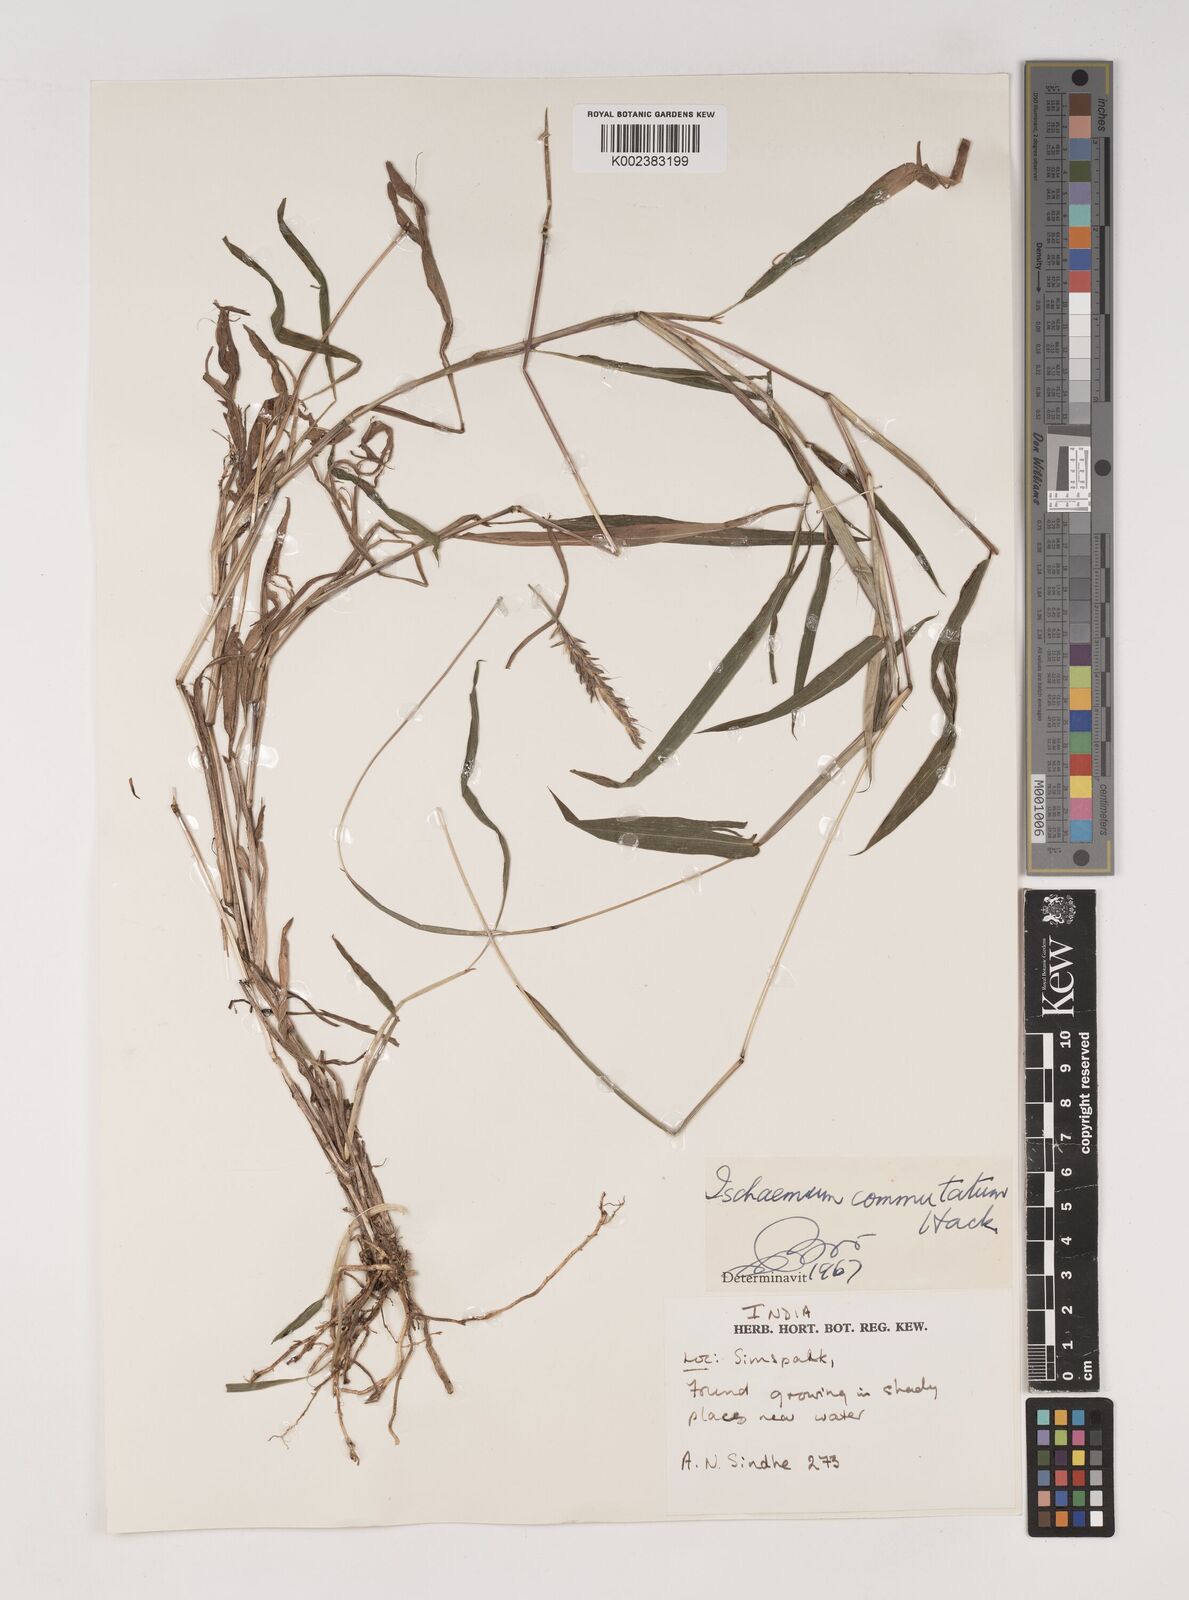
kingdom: Plantae
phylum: Tracheophyta
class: Liliopsida
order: Poales
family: Poaceae
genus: Ischaemum
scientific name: Ischaemum commutatum
